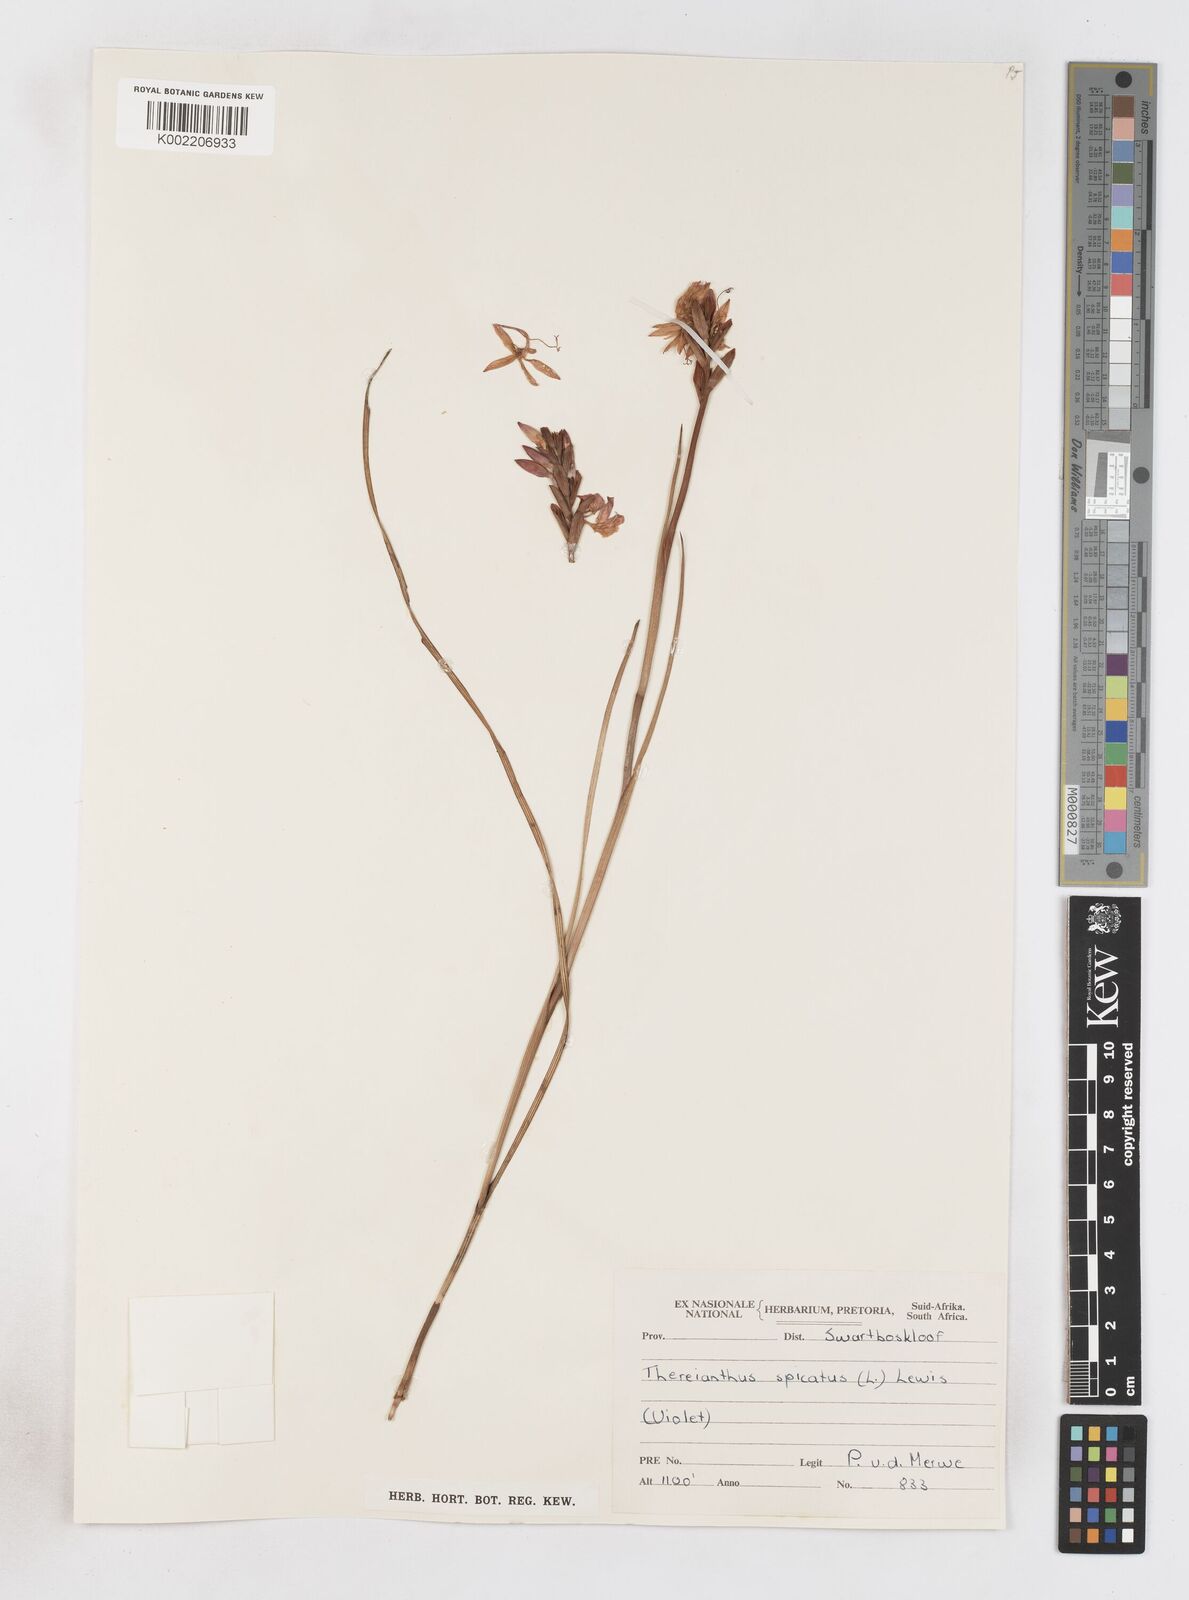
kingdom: Plantae
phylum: Tracheophyta
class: Liliopsida
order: Asparagales
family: Iridaceae
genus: Thereianthus
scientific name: Thereianthus spicatus
